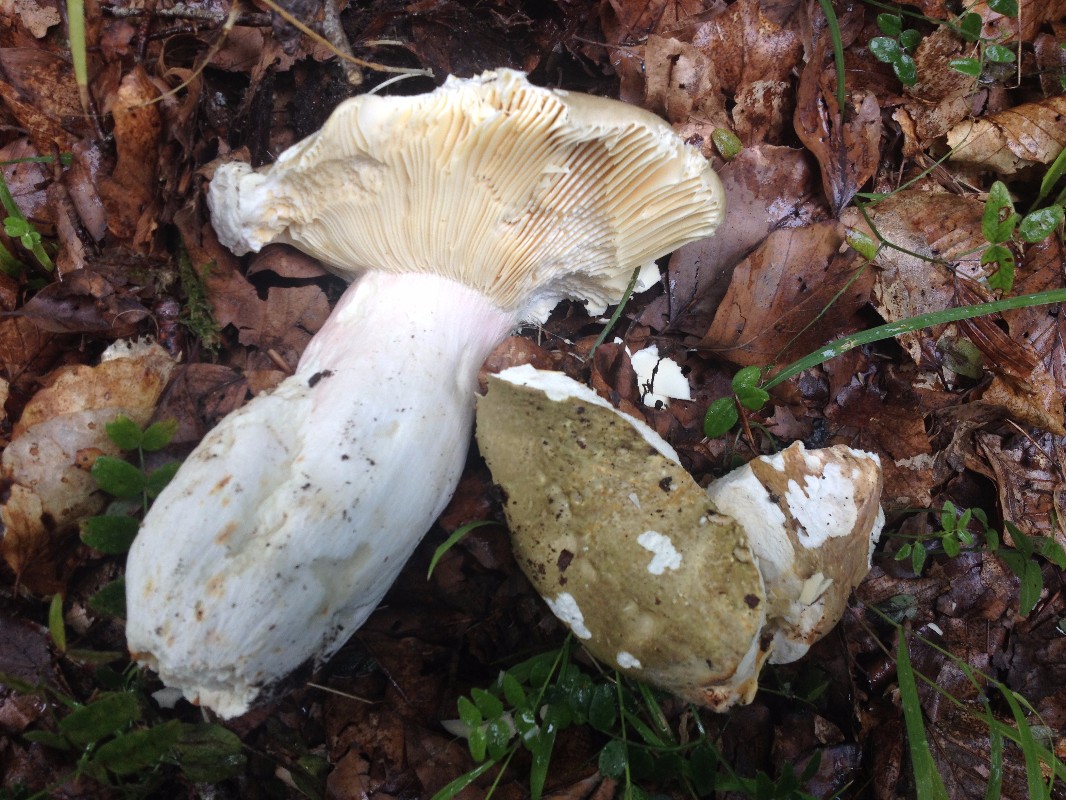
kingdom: Fungi
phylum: Basidiomycota
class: Agaricomycetes
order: Russulales
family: Russulaceae
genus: Russula
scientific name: Russula olivacea
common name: stor skørhat
